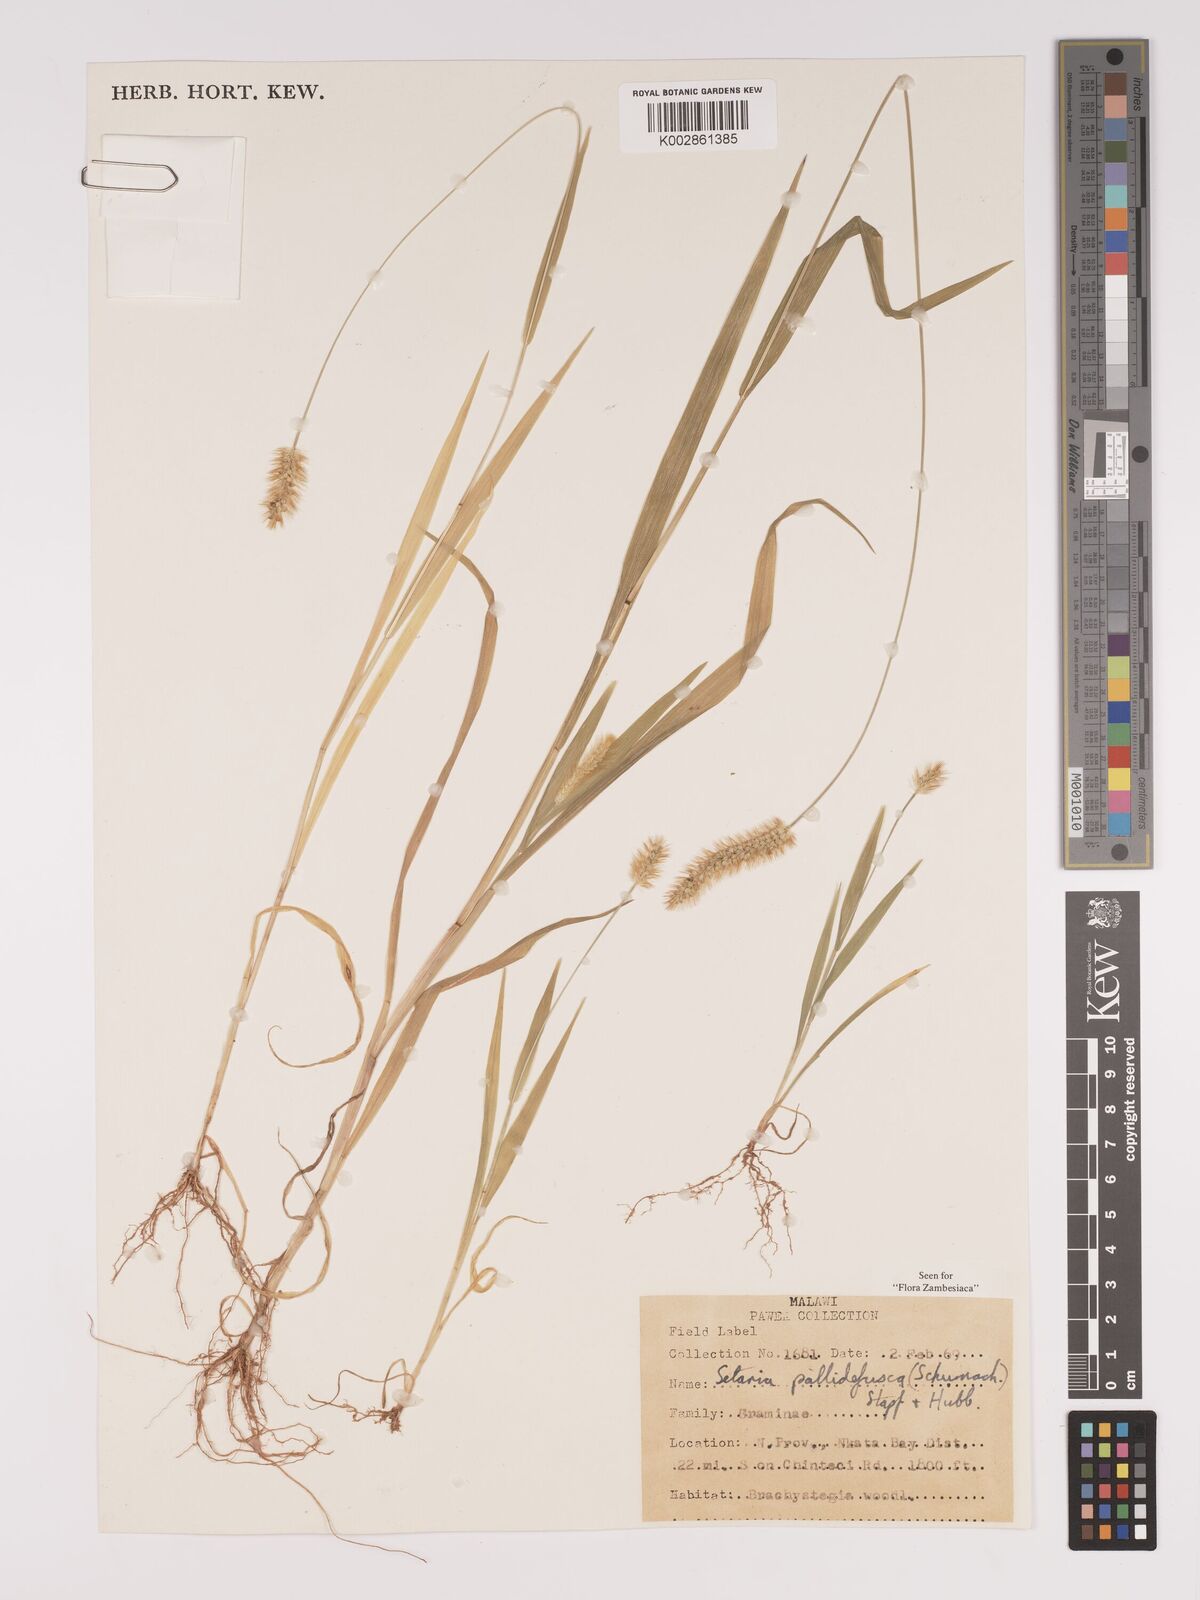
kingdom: Plantae
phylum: Tracheophyta
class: Liliopsida
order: Poales
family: Poaceae
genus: Setaria
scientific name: Setaria pumila
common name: Yellow bristle-grass
